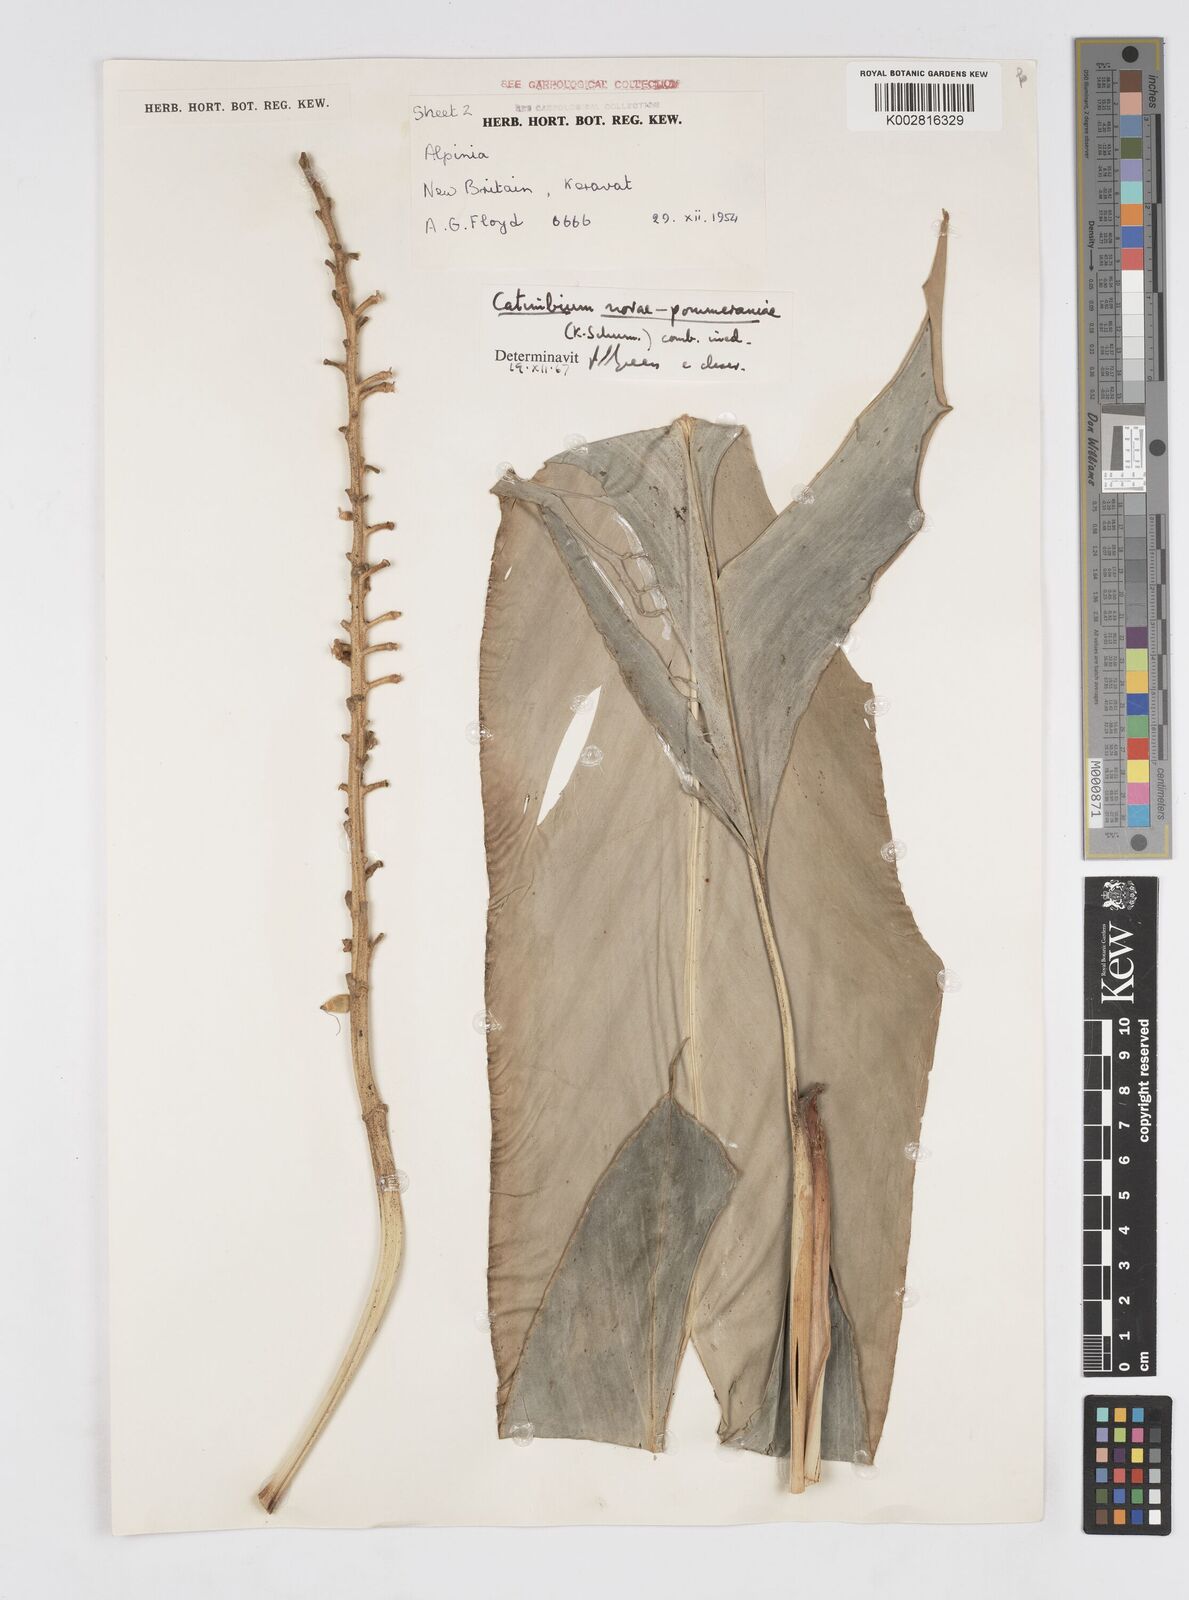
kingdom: Plantae
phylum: Tracheophyta
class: Liliopsida
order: Zingiberales
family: Zingiberaceae
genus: Alpinia
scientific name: Alpinia novae-pommeraniae
